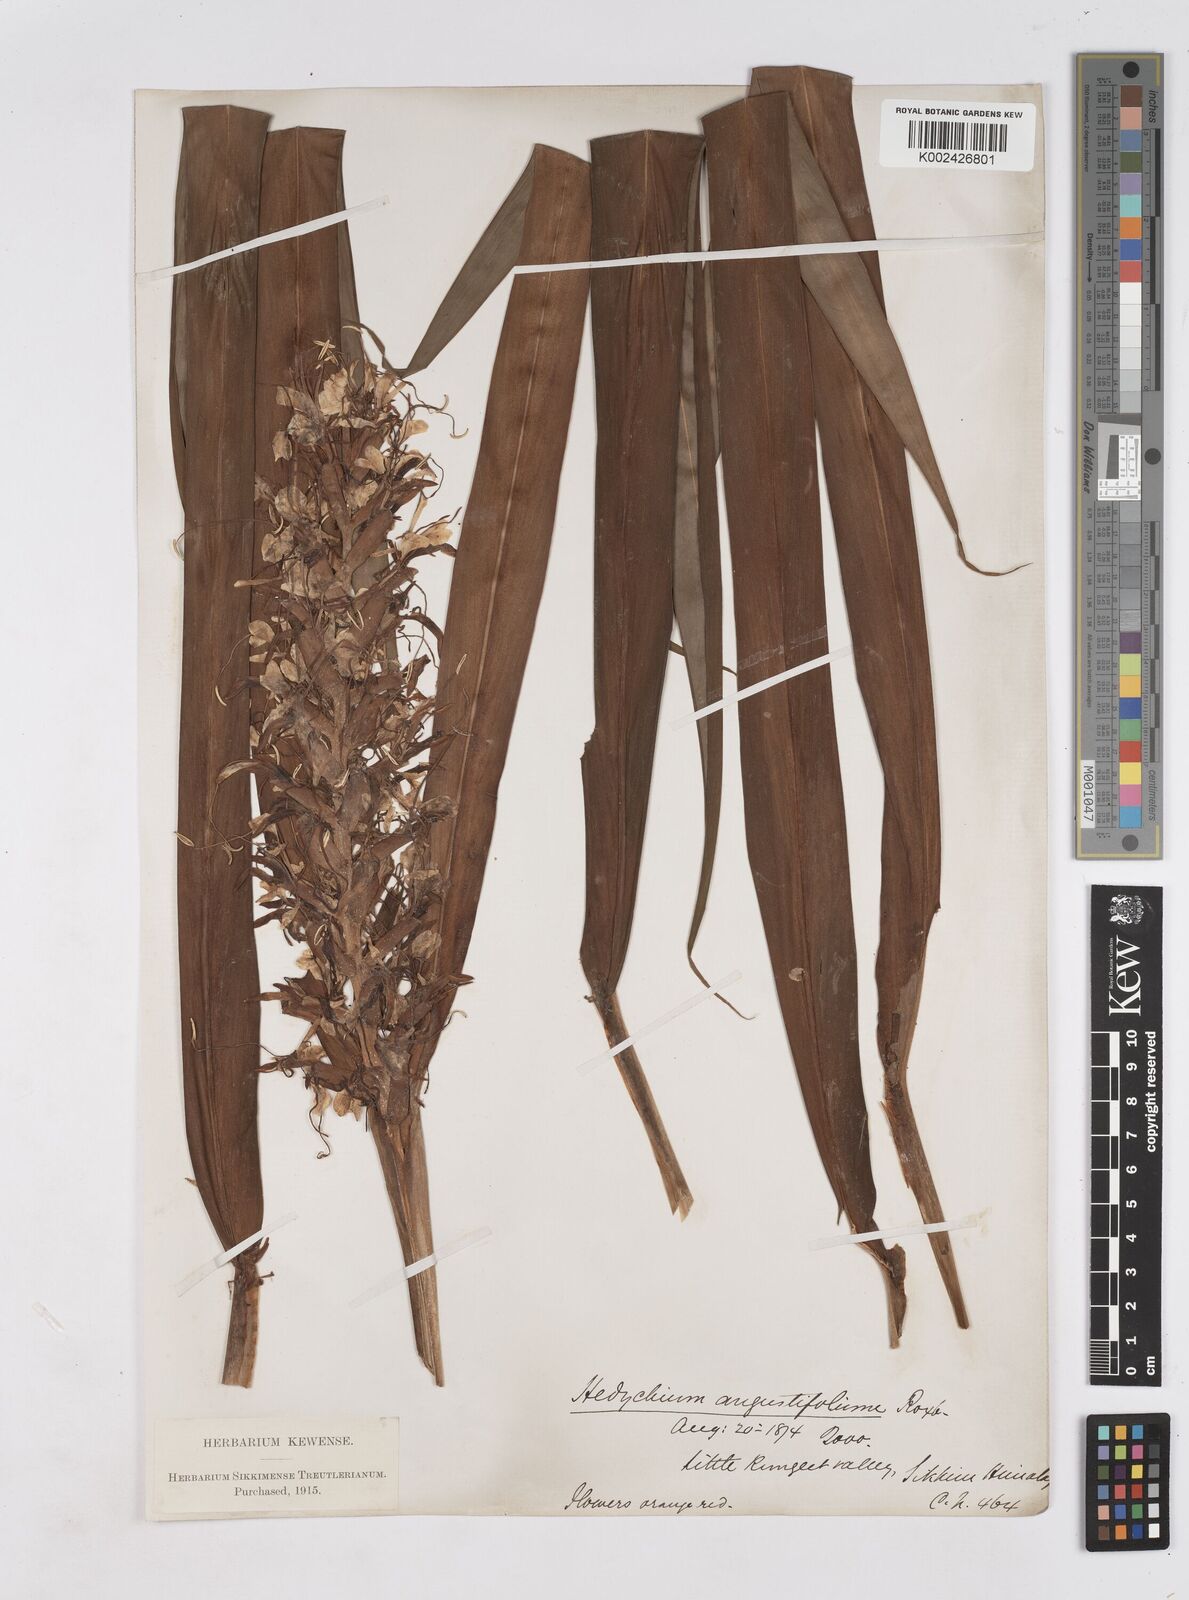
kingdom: Plantae
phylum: Tracheophyta
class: Liliopsida
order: Zingiberales
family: Zingiberaceae
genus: Hedychium
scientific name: Hedychium coccineum
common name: Red ginger-lily
